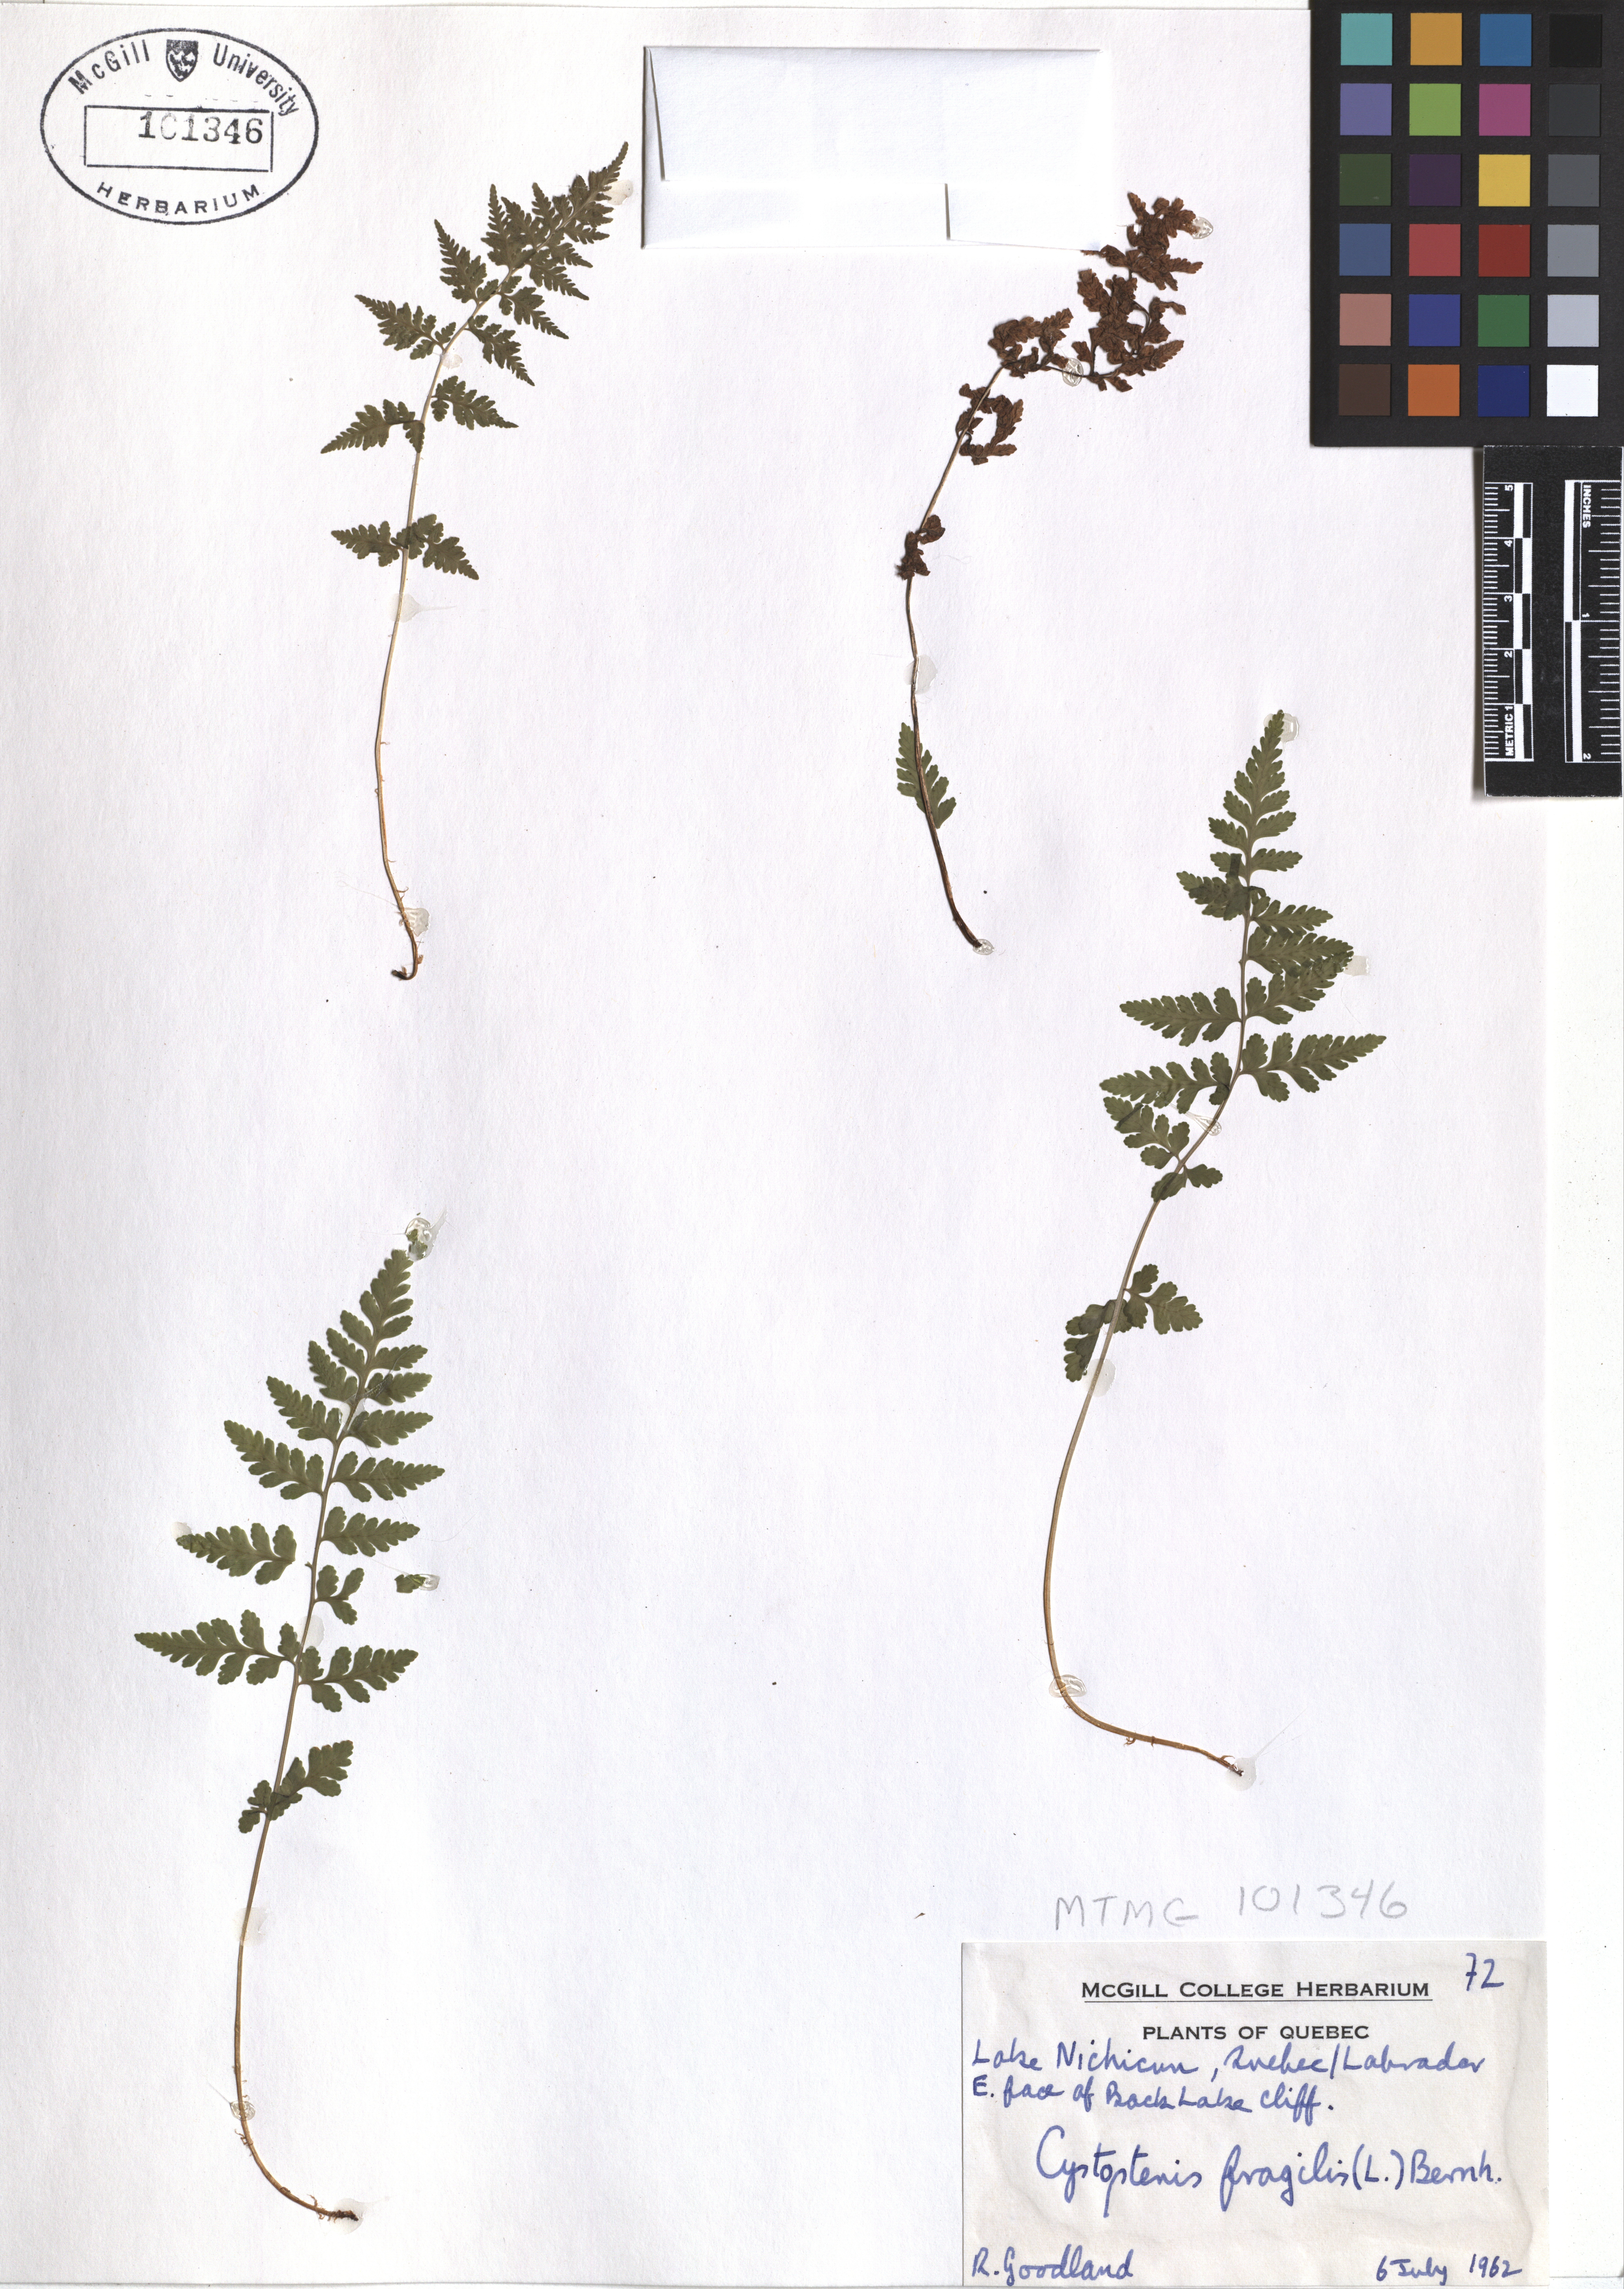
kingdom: Plantae
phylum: Tracheophyta
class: Polypodiopsida
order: Polypodiales
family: Cystopteridaceae
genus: Cystopteris
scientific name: Cystopteris fragilis
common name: Brittle bladder fern
